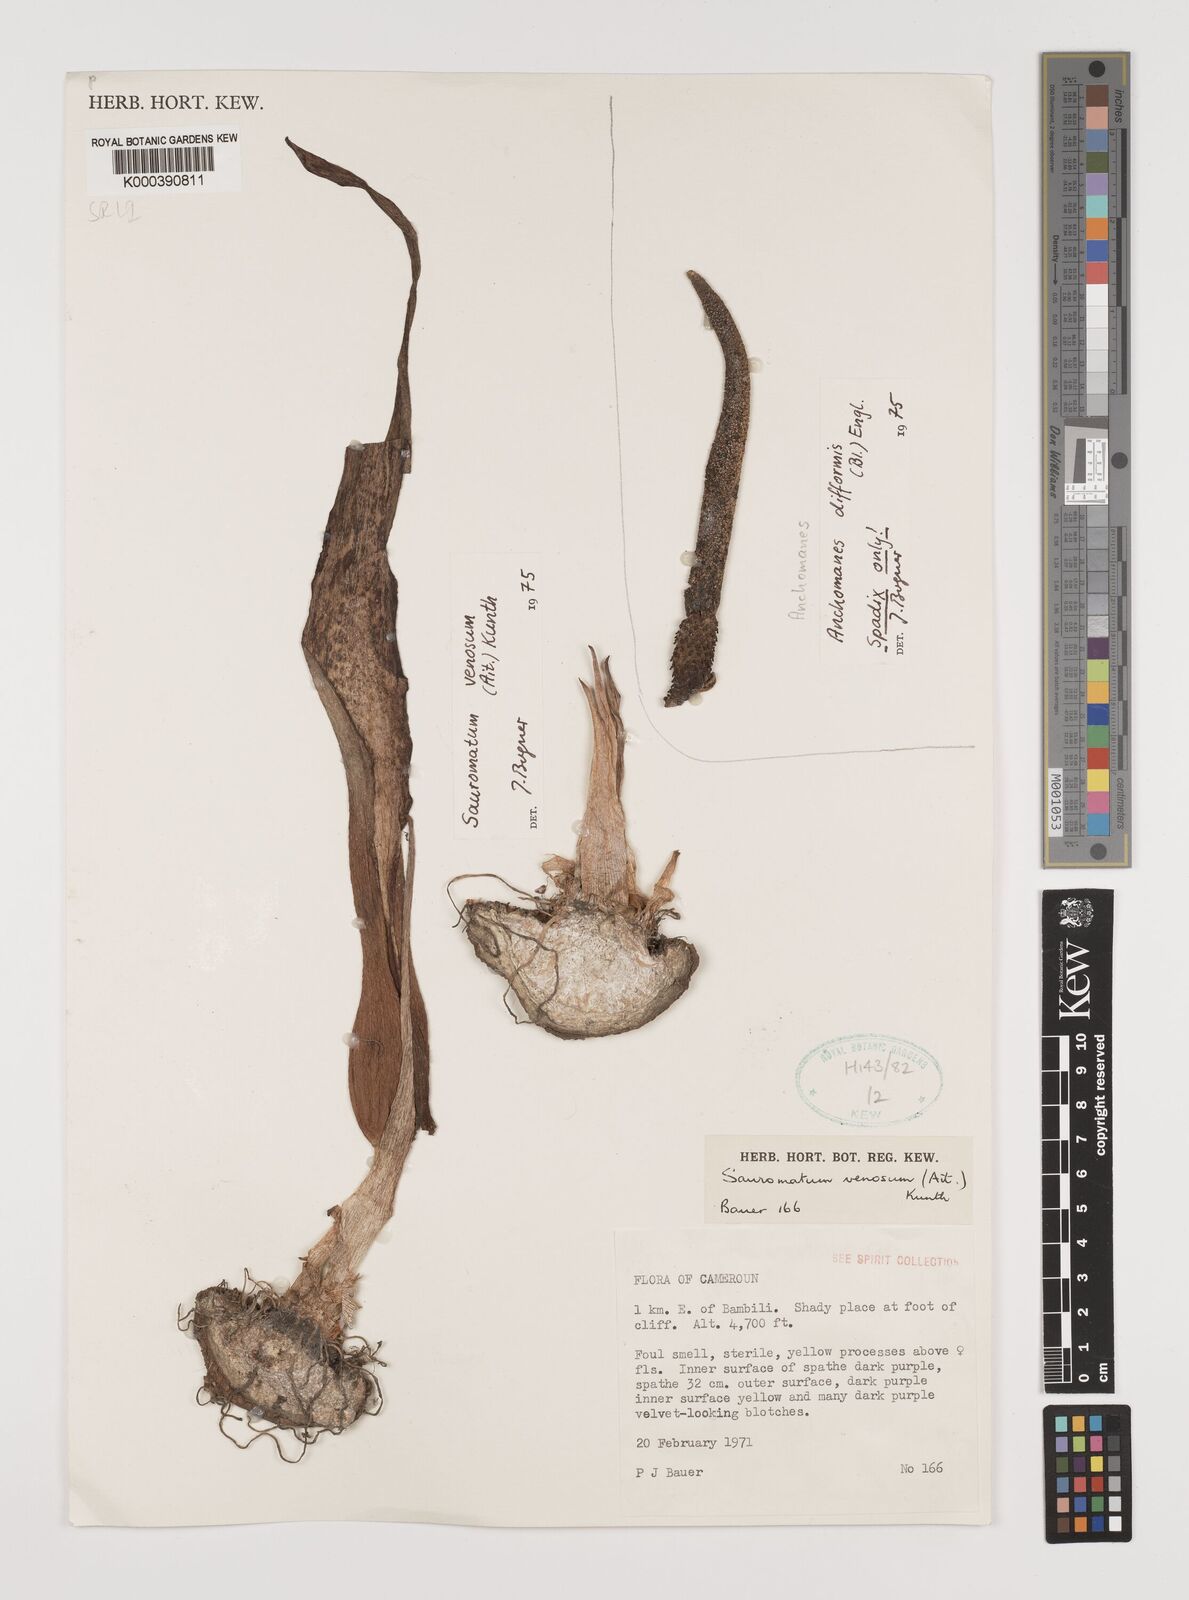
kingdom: Plantae
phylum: Tracheophyta
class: Liliopsida
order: Alismatales
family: Araceae
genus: Sauromatum
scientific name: Sauromatum venosum
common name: Voodoo lily
